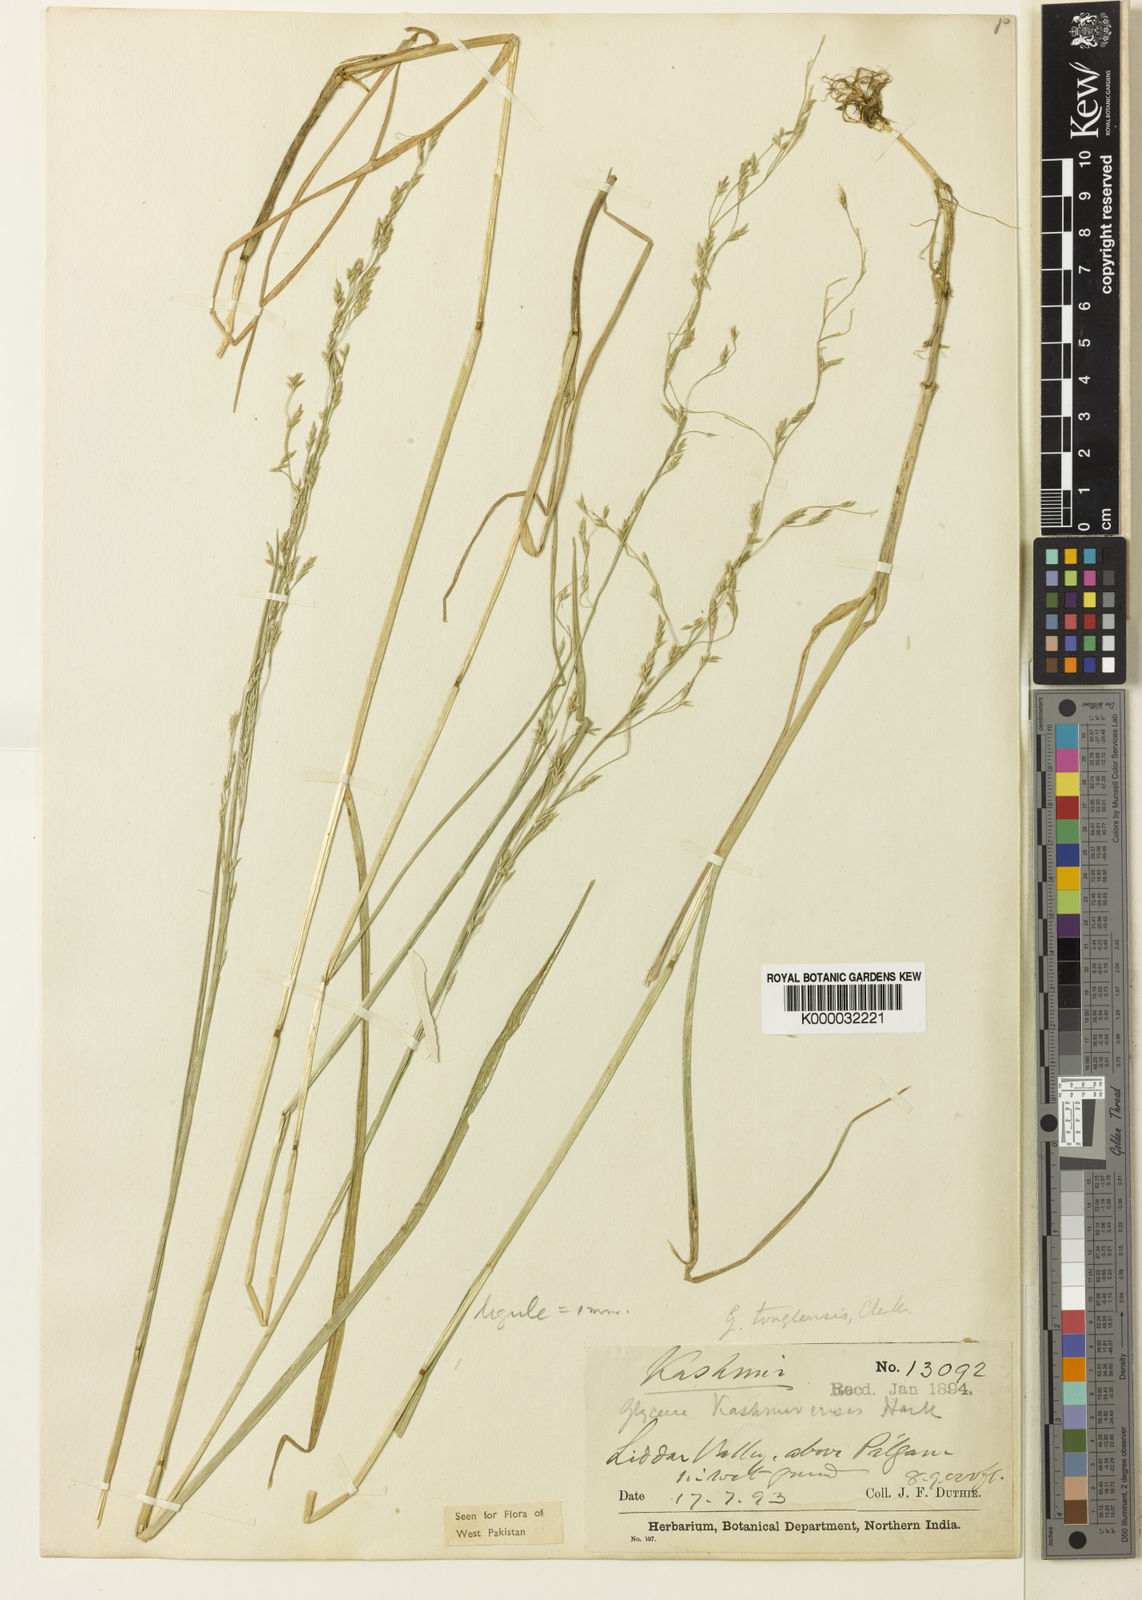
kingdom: Plantae
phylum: Tracheophyta
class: Liliopsida
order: Poales
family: Poaceae
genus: Glyceria
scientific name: Glyceria tonglensis
